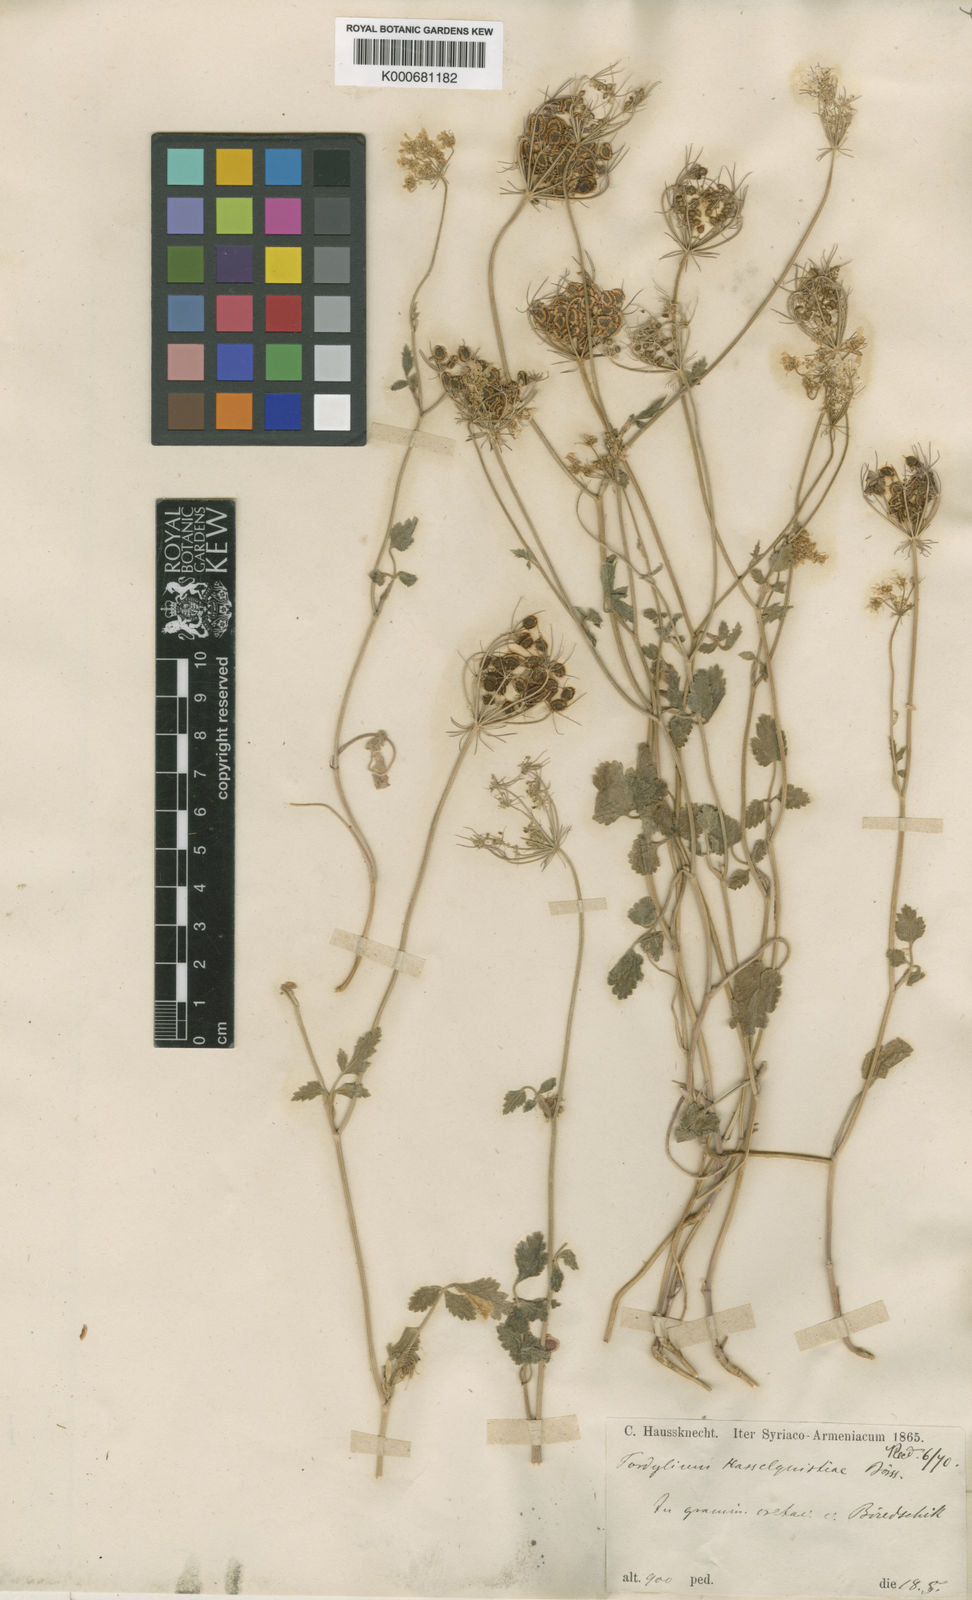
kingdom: Plantae
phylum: Tracheophyta
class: Magnoliopsida
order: Apiales
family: Apiaceae
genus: Tordylium
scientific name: Tordylium
